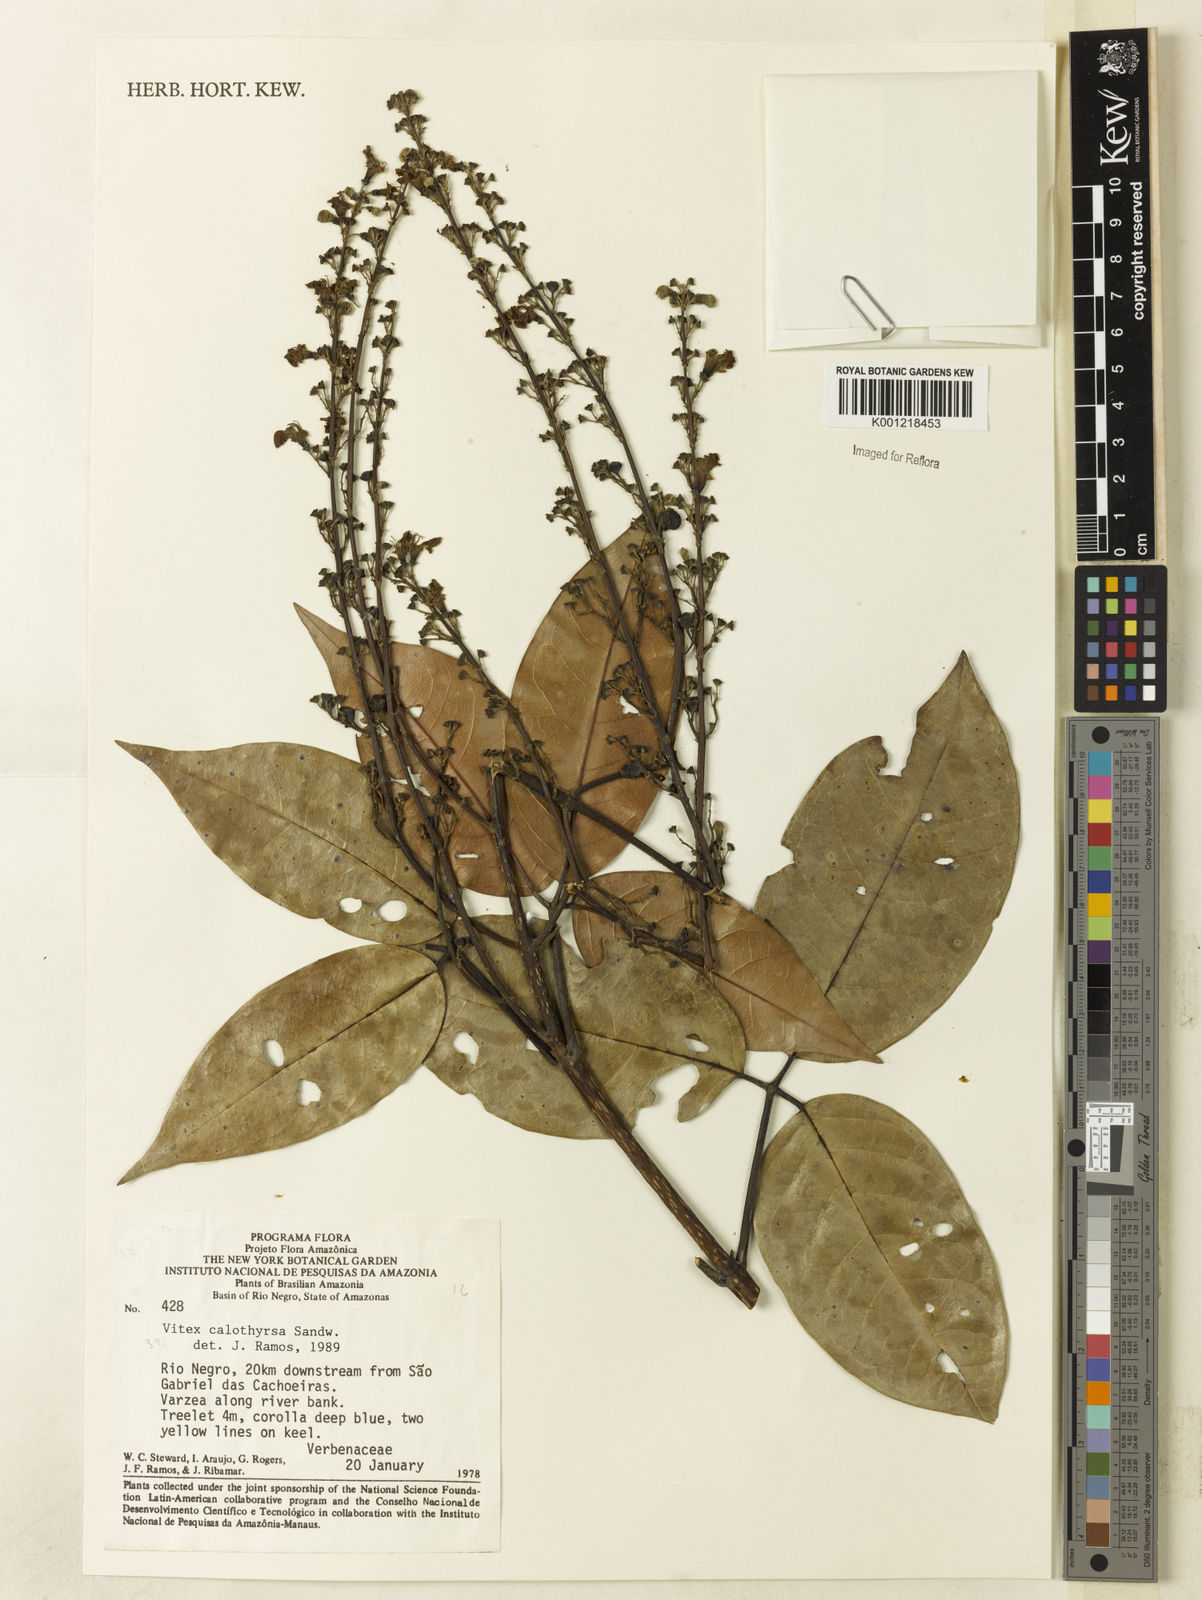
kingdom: Plantae
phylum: Tracheophyta
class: Magnoliopsida
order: Lamiales
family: Lamiaceae
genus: Vitex
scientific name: Vitex calothyrsa
